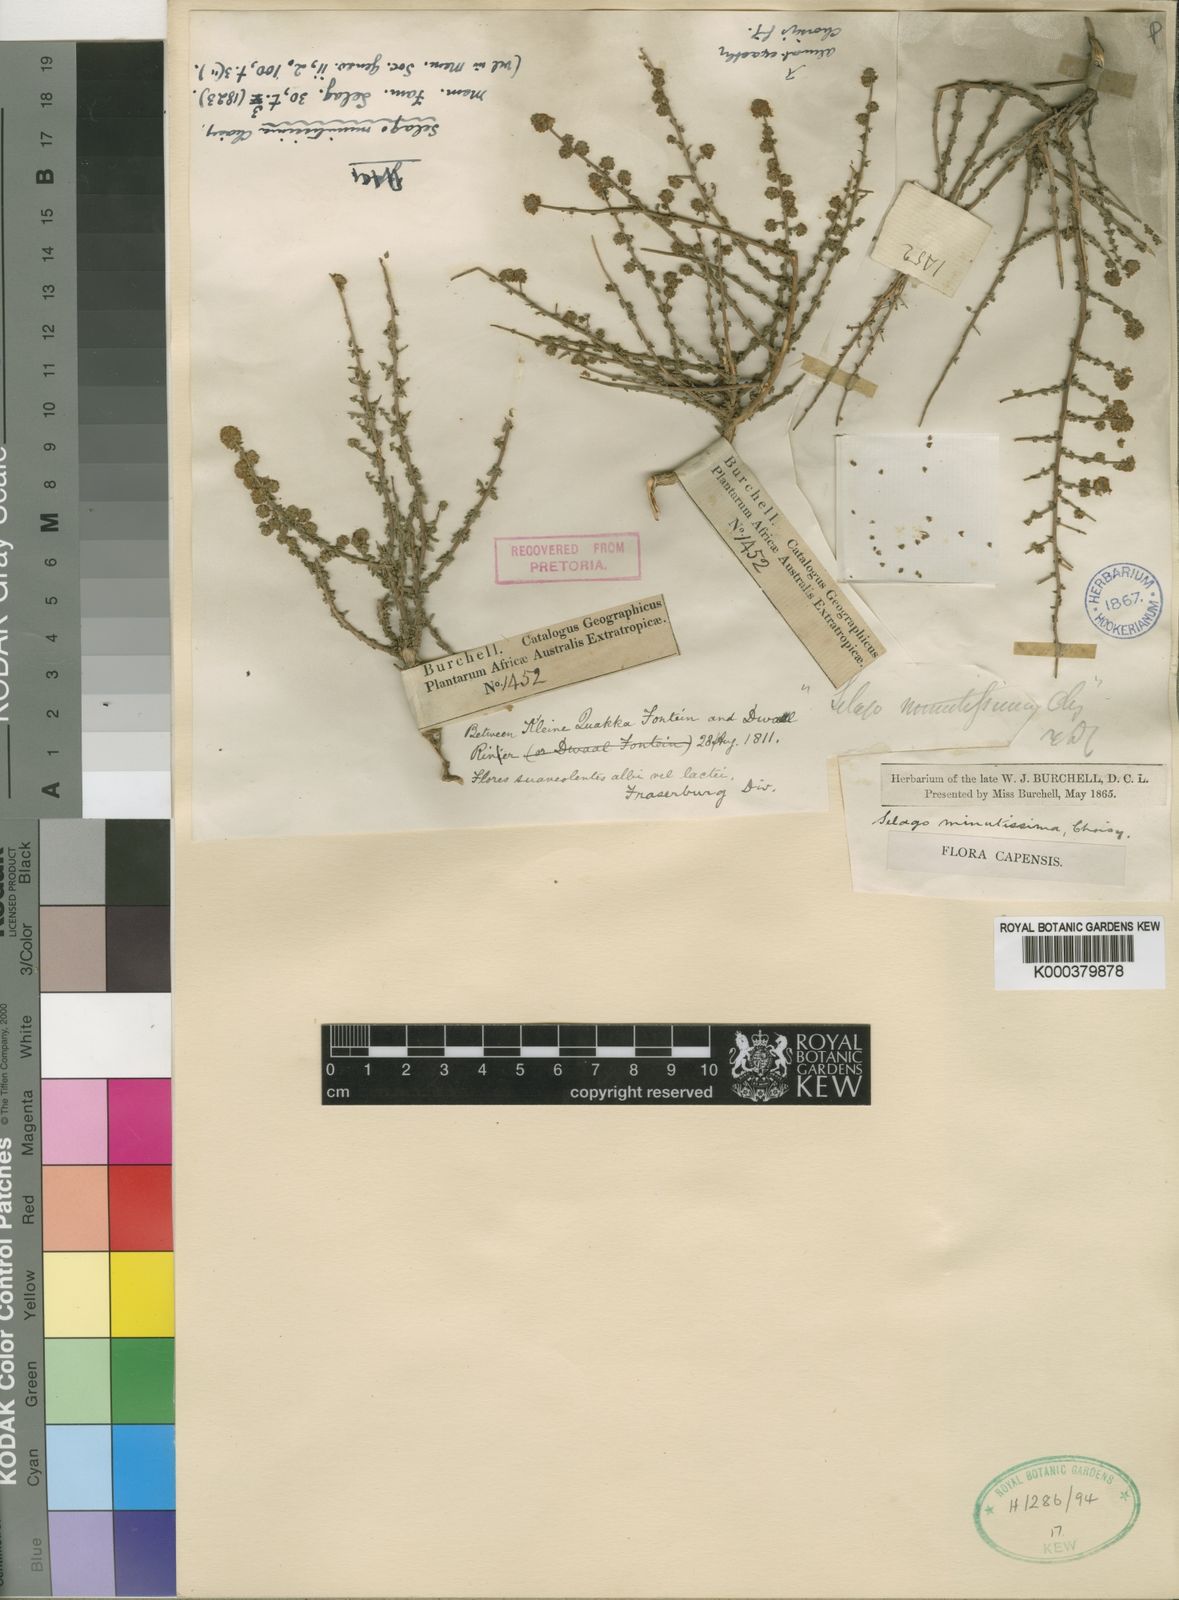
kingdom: Plantae
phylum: Tracheophyta
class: Magnoliopsida
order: Lamiales
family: Scrophulariaceae
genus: Selago
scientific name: Selago divaricata
